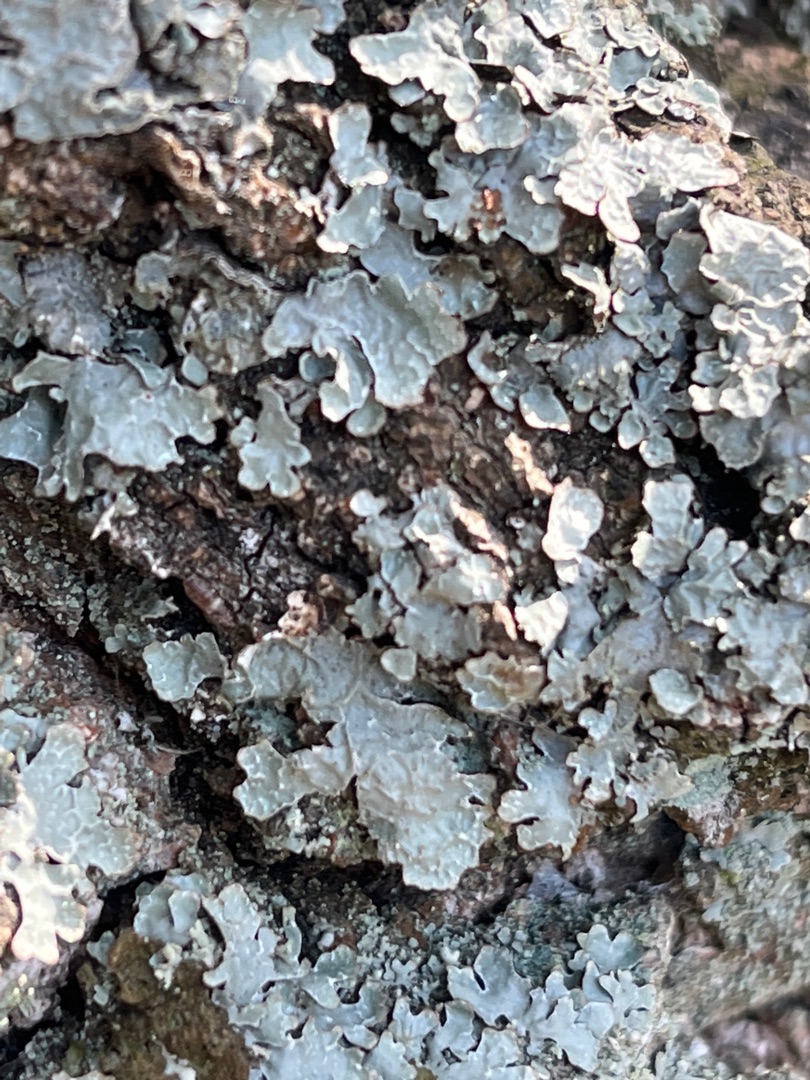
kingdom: Fungi
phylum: Ascomycota
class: Lecanoromycetes
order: Lecanorales
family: Parmeliaceae
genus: Parmelia
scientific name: Parmelia sulcata
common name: Rynket skållav
